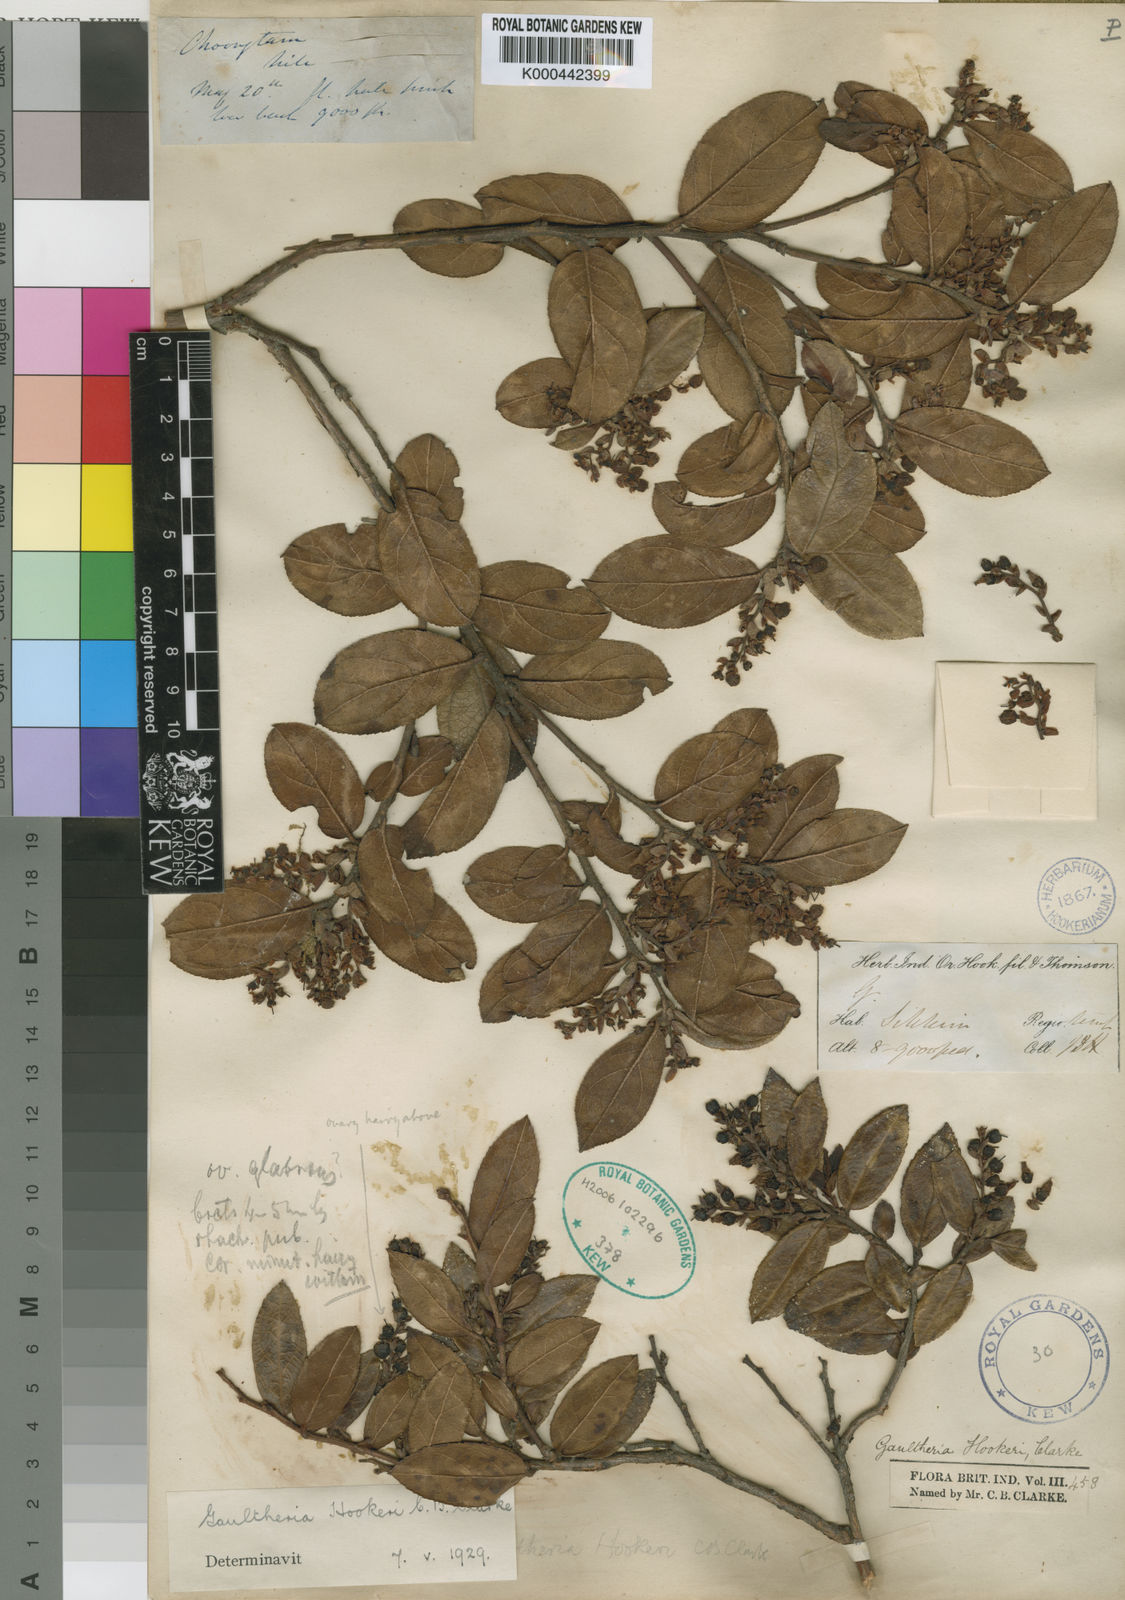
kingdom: Plantae
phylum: Tracheophyta
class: Magnoliopsida
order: Ericales
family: Ericaceae
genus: Gaultheria
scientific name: Gaultheria hookeri
